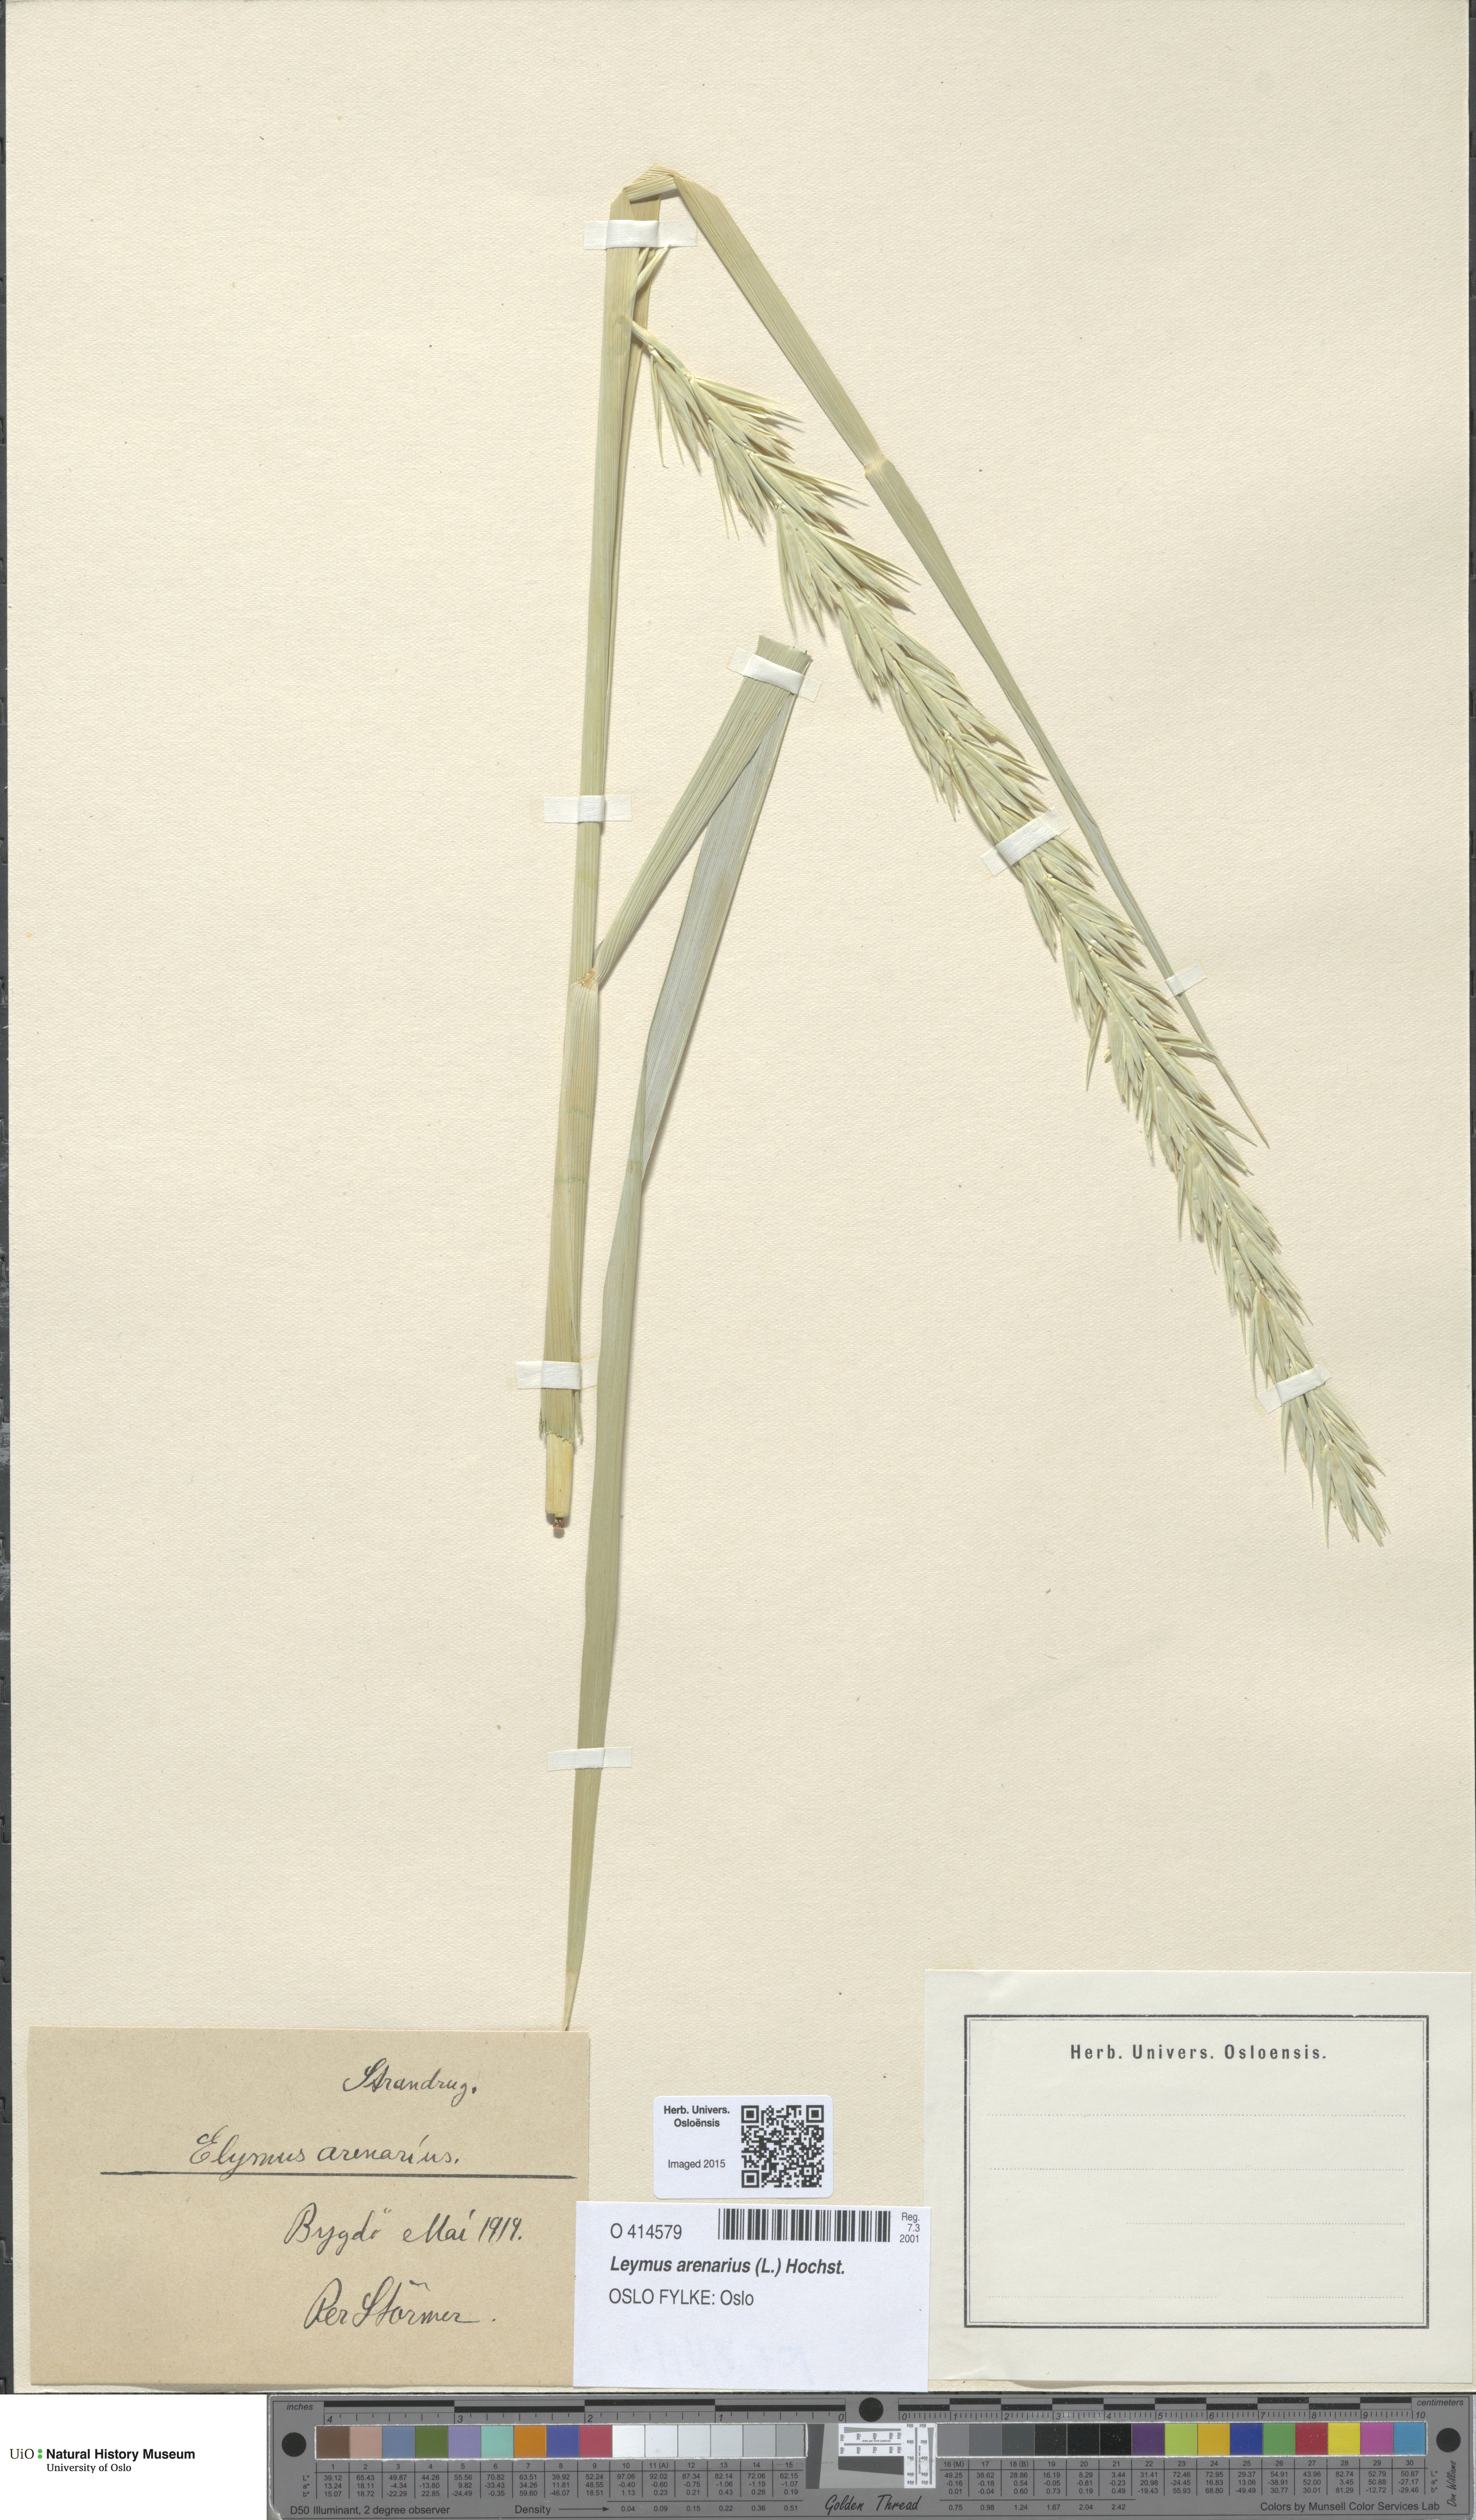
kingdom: Plantae
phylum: Tracheophyta
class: Liliopsida
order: Poales
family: Poaceae
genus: Leymus
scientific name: Leymus arenarius
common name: Lyme-grass
